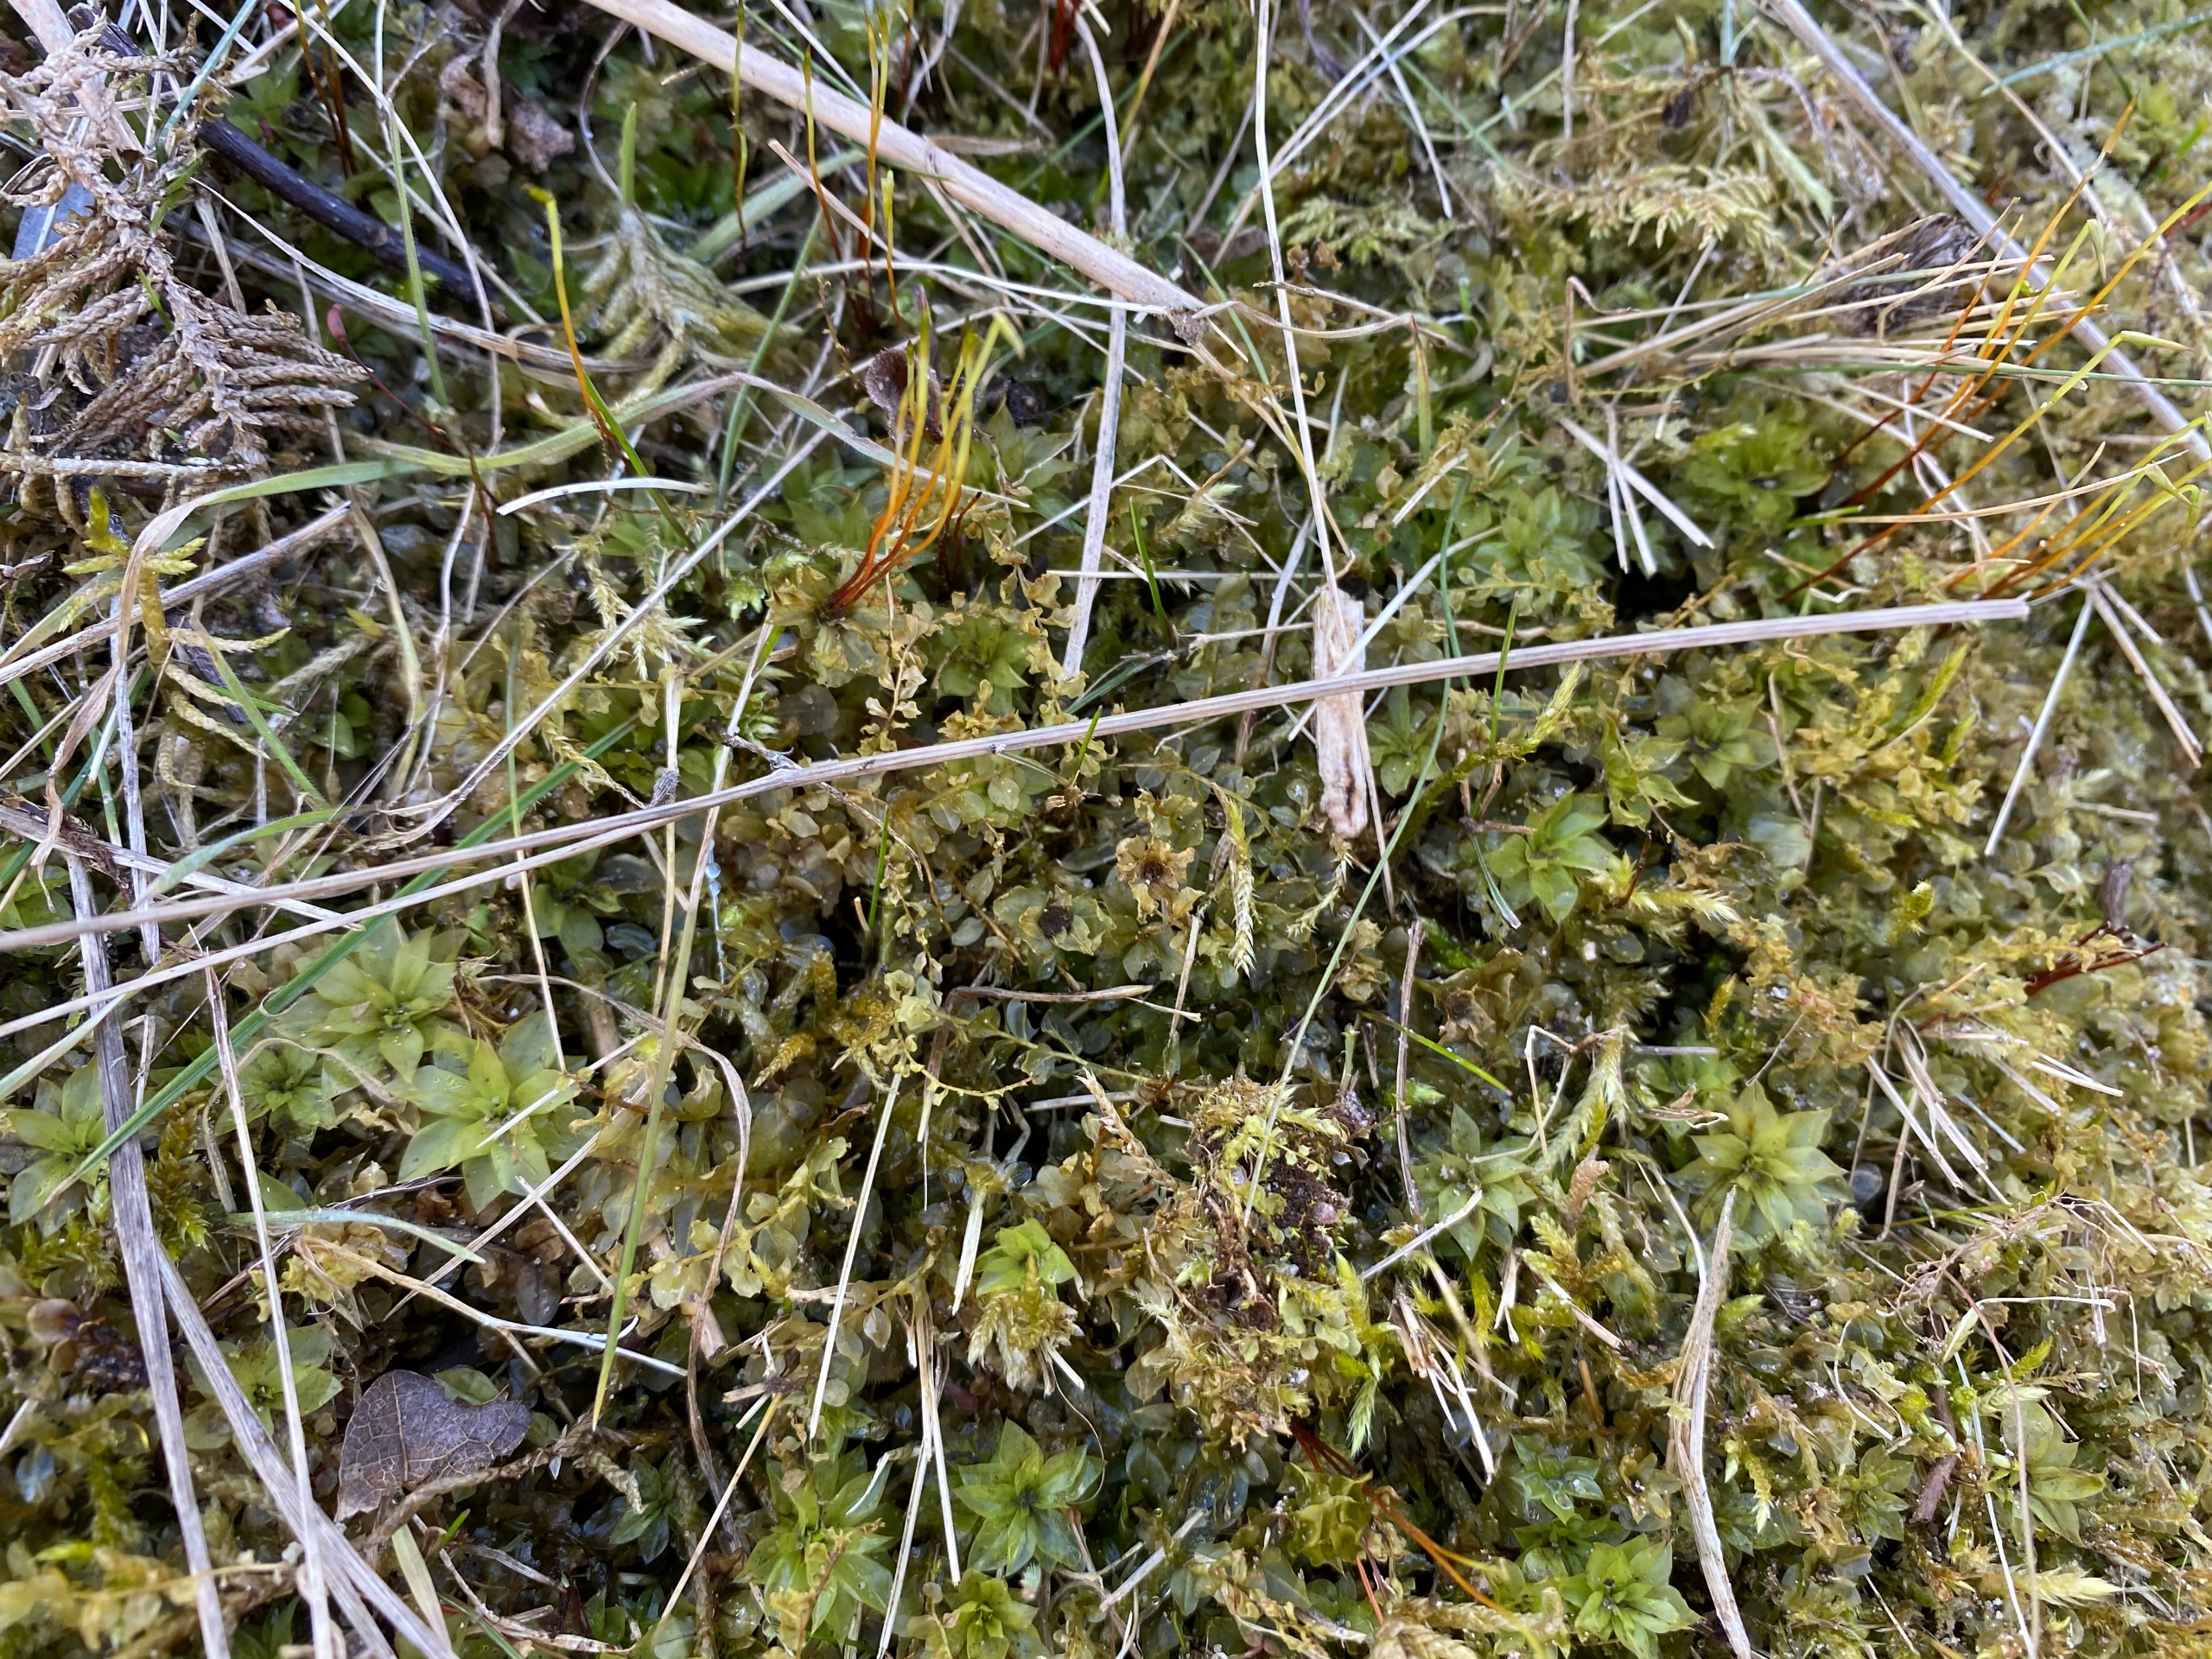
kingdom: Plantae
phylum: Bryophyta
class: Bryopsida
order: Bryales
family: Bryaceae
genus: Rhodobryum
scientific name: Rhodobryum roseum
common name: Stor rosetmos
